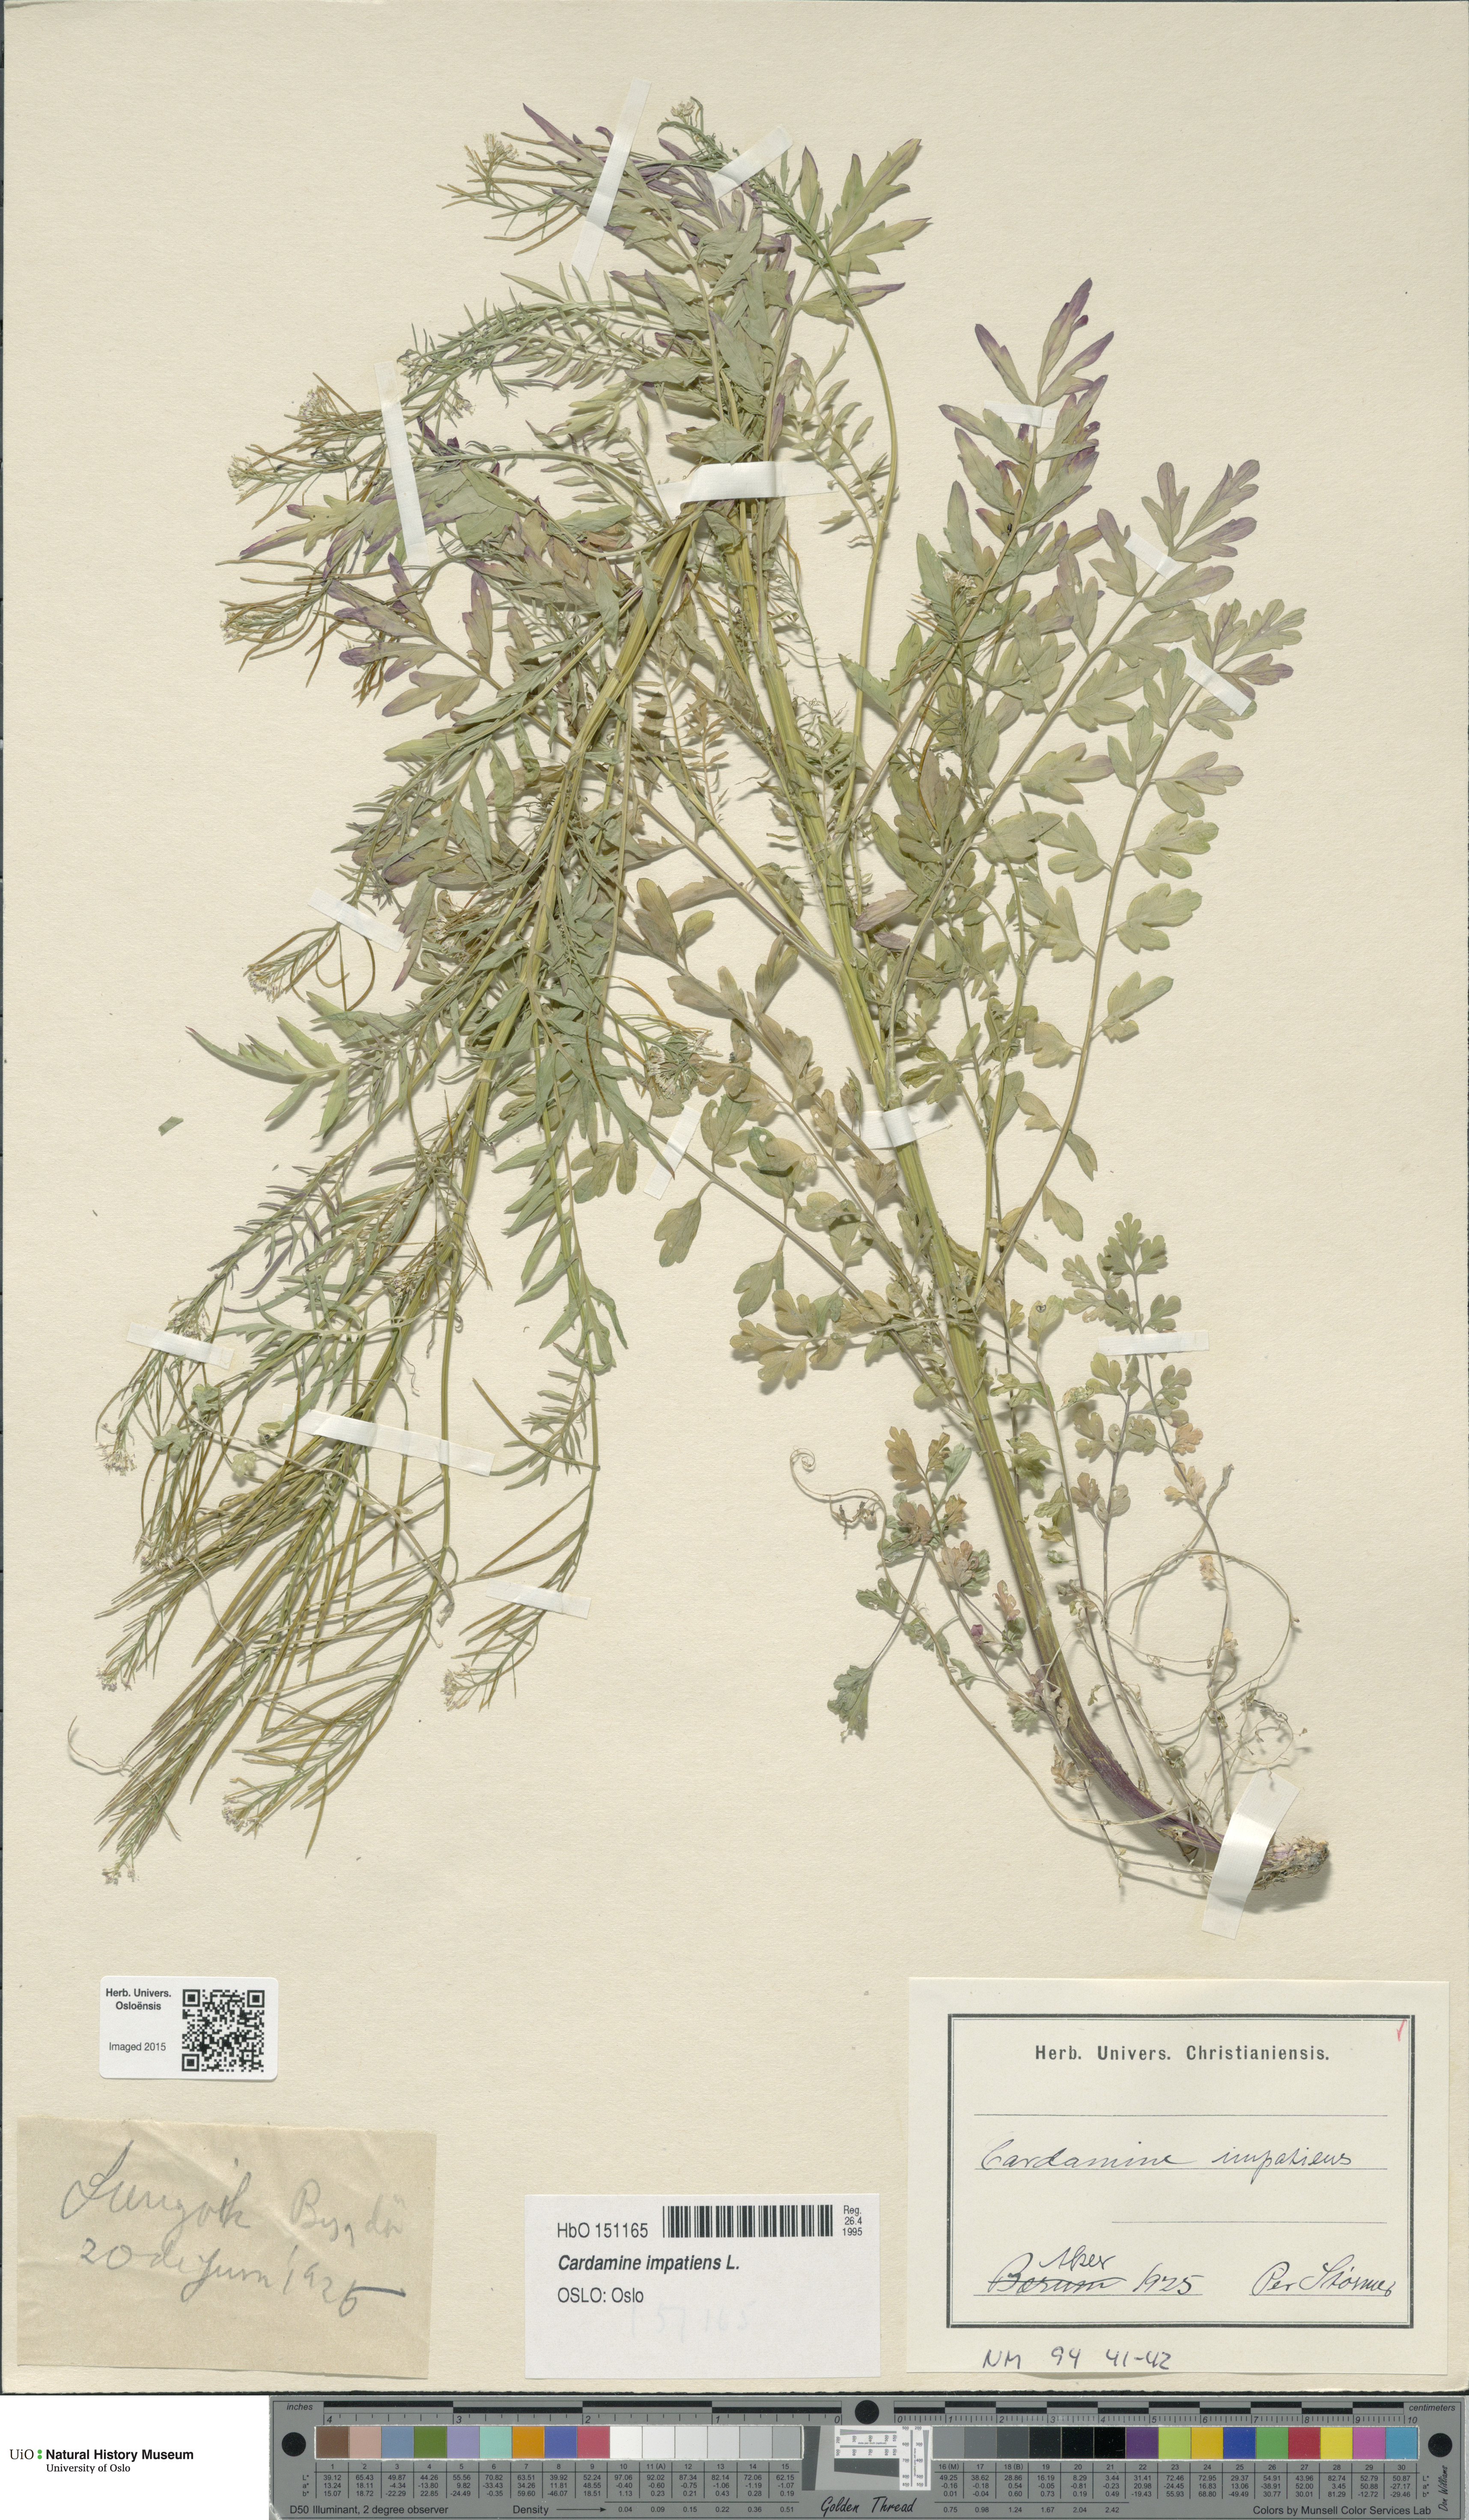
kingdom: Plantae
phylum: Tracheophyta
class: Magnoliopsida
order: Brassicales
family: Brassicaceae
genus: Cardamine
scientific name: Cardamine impatiens
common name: Narrow-leaved bitter-cress
